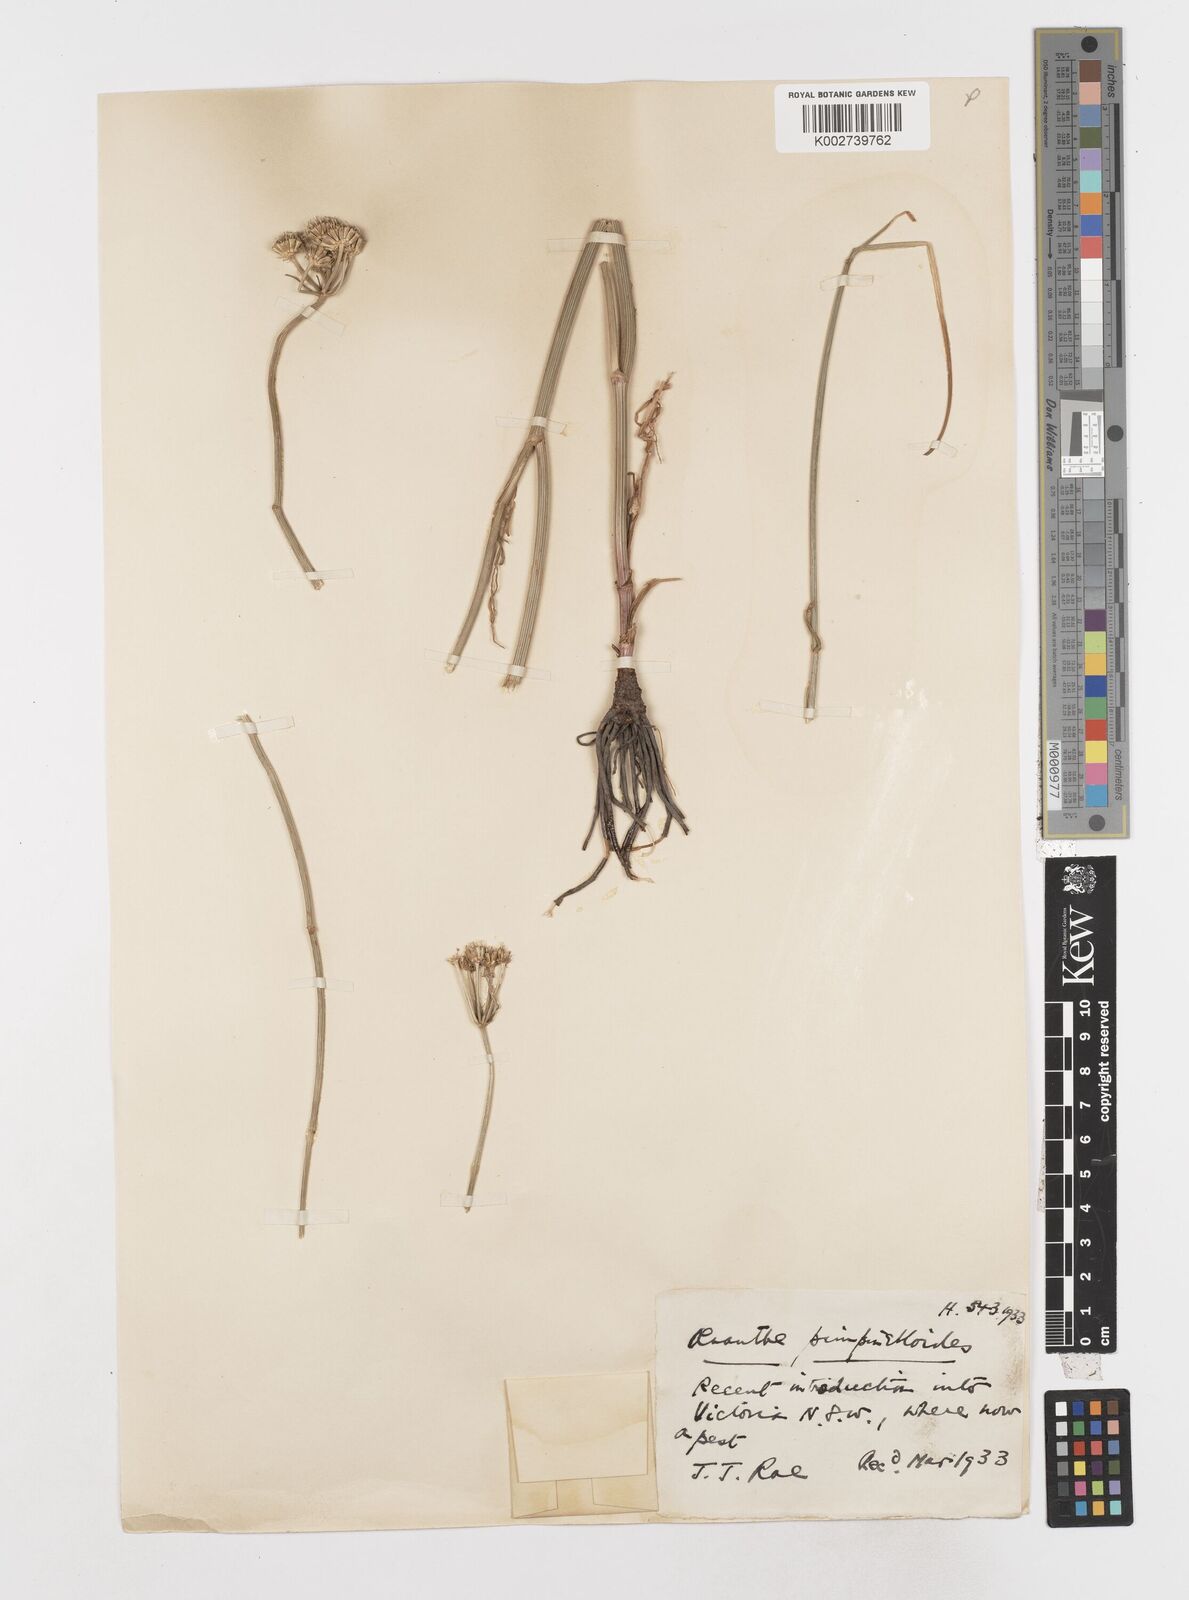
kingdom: Plantae
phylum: Tracheophyta
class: Magnoliopsida
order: Apiales
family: Apiaceae
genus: Oenanthe
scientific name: Oenanthe pimpinelloides
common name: Corky-fruited water-dropwort
